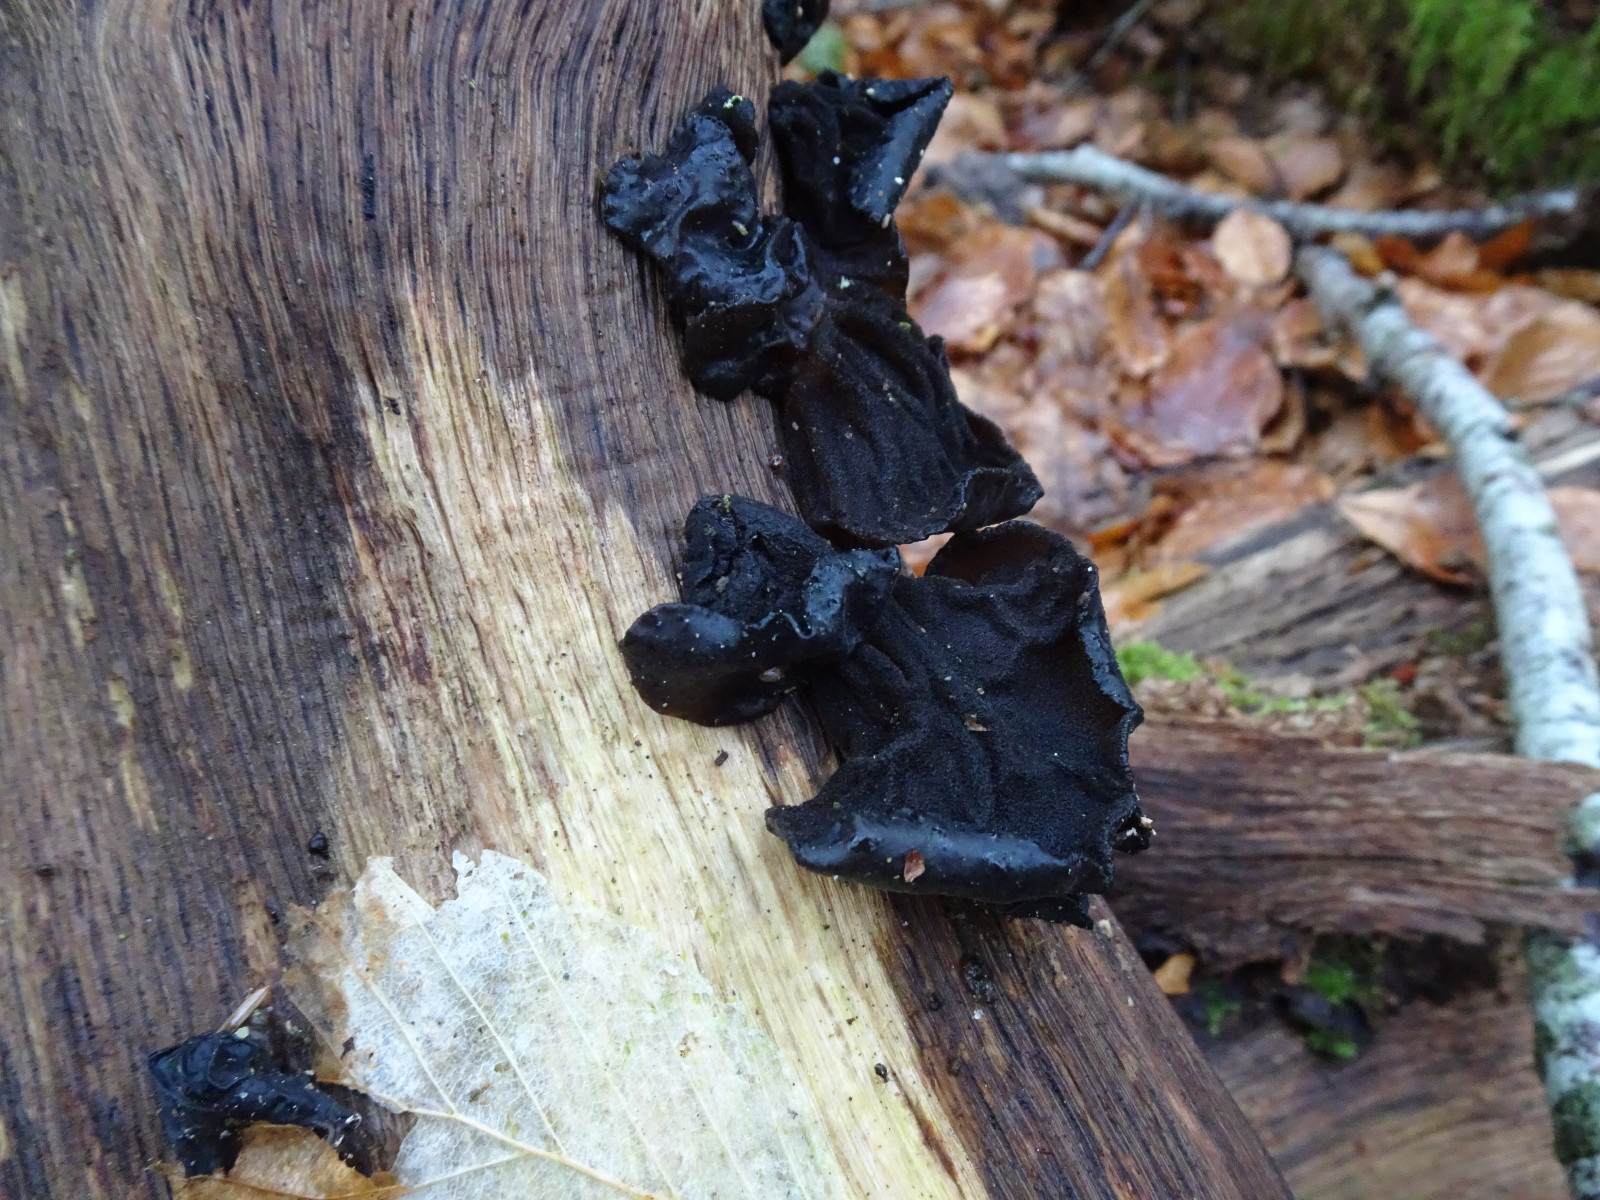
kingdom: Fungi
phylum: Basidiomycota
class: Agaricomycetes
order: Auriculariales
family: Auriculariaceae
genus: Exidia
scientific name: Exidia glandulosa
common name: ege-bævretop
